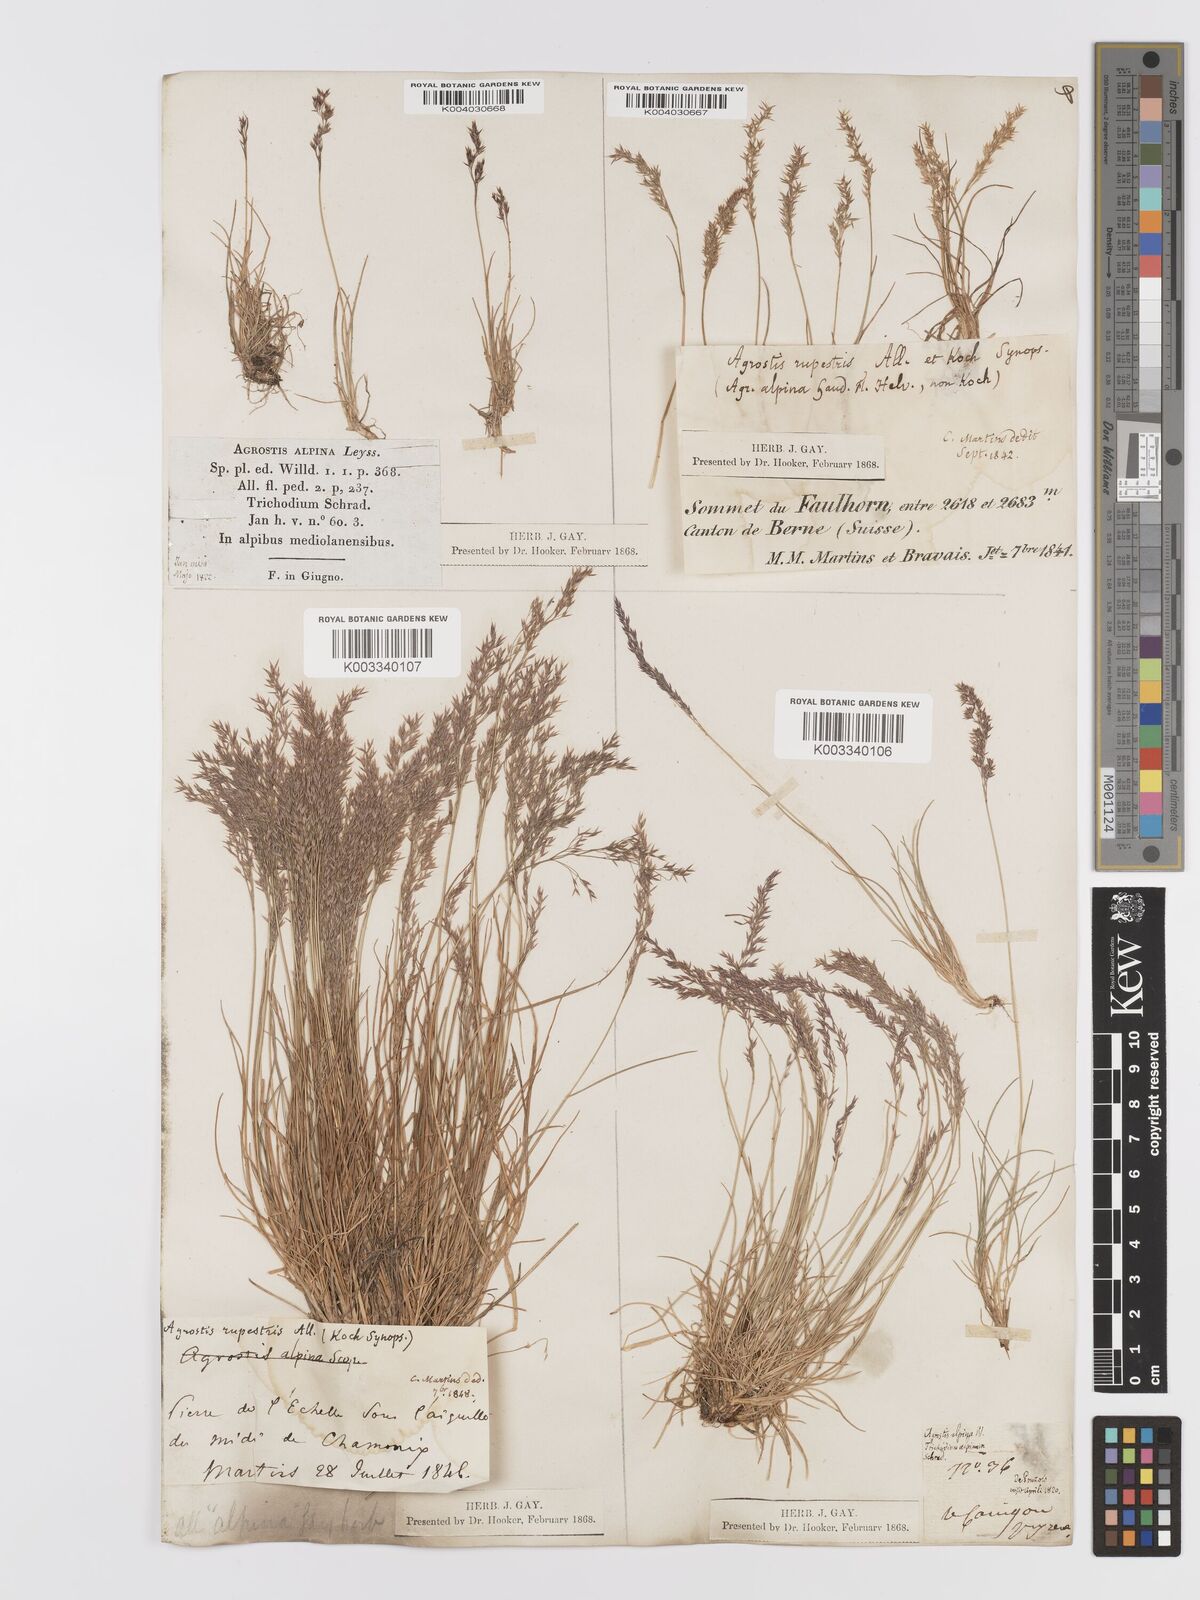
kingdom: Plantae
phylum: Tracheophyta
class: Liliopsida
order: Poales
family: Poaceae
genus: Agrostis
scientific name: Agrostis rupestris
